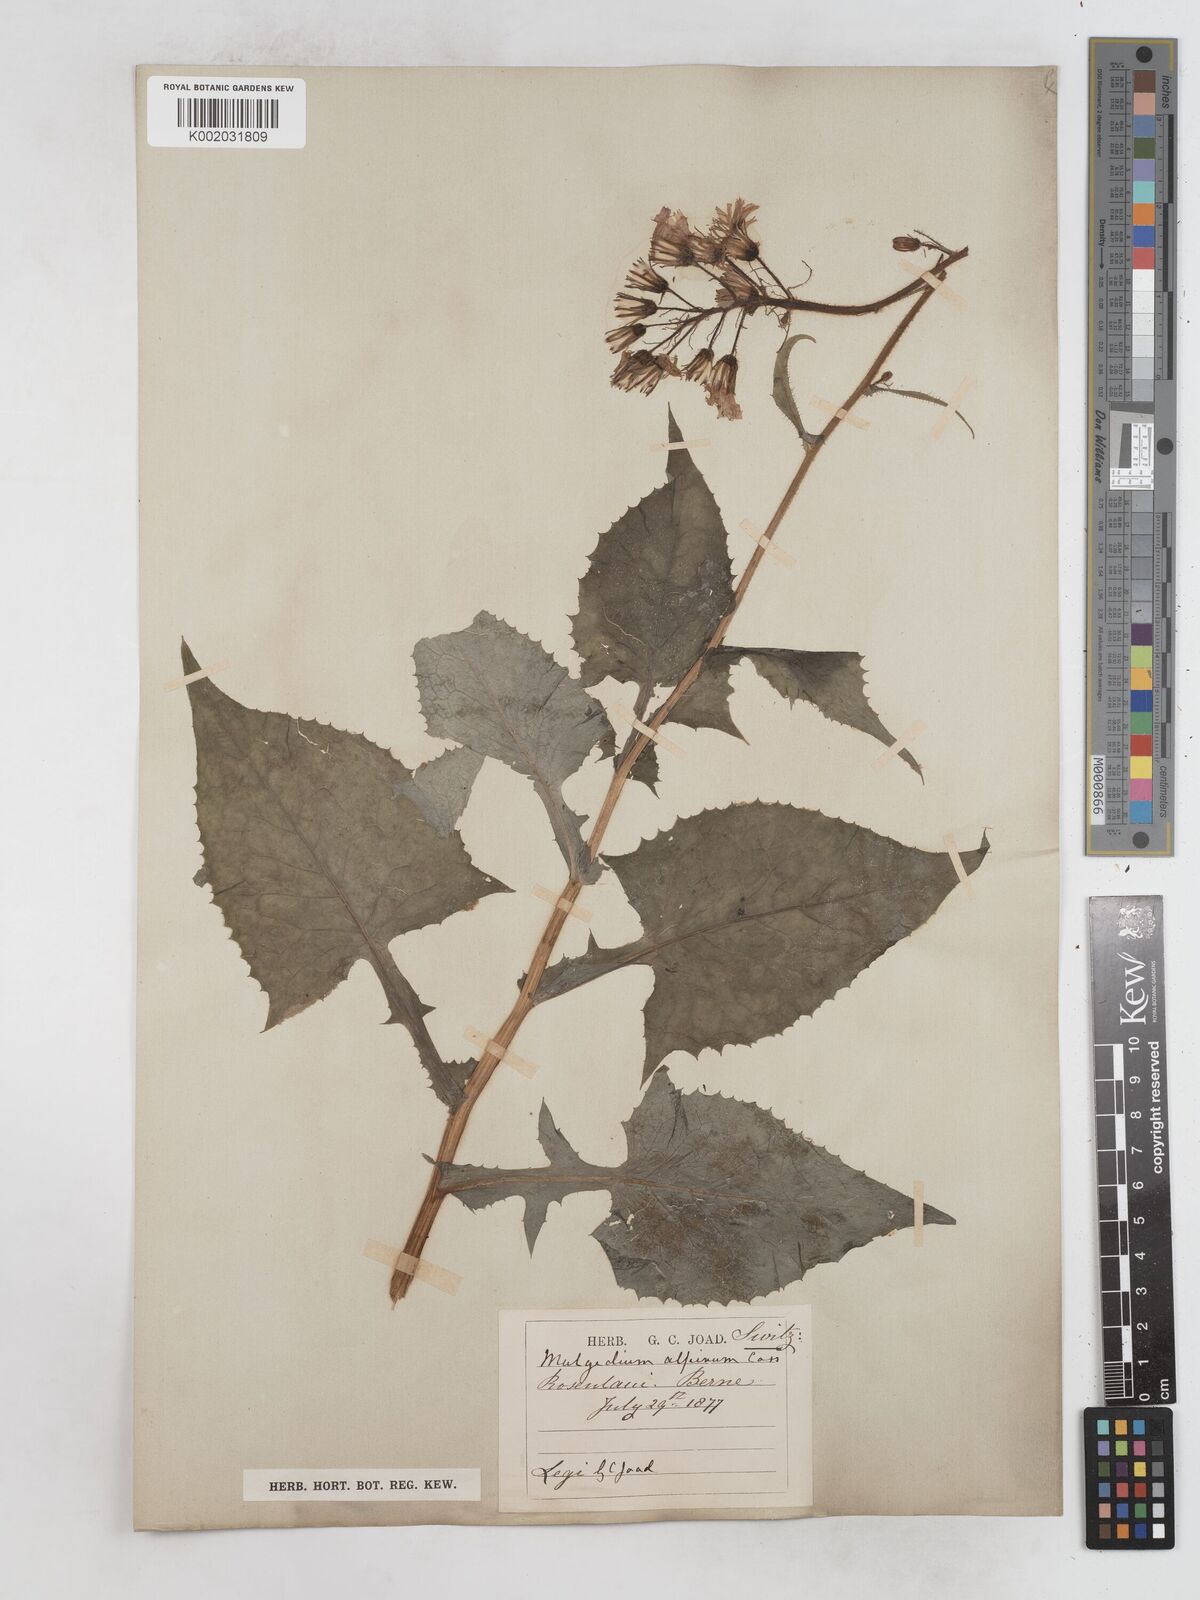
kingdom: Plantae
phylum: Tracheophyta
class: Magnoliopsida
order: Asterales
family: Asteraceae
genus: Cicerbita
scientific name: Cicerbita alpina
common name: Alpine blue-sow-thistle
